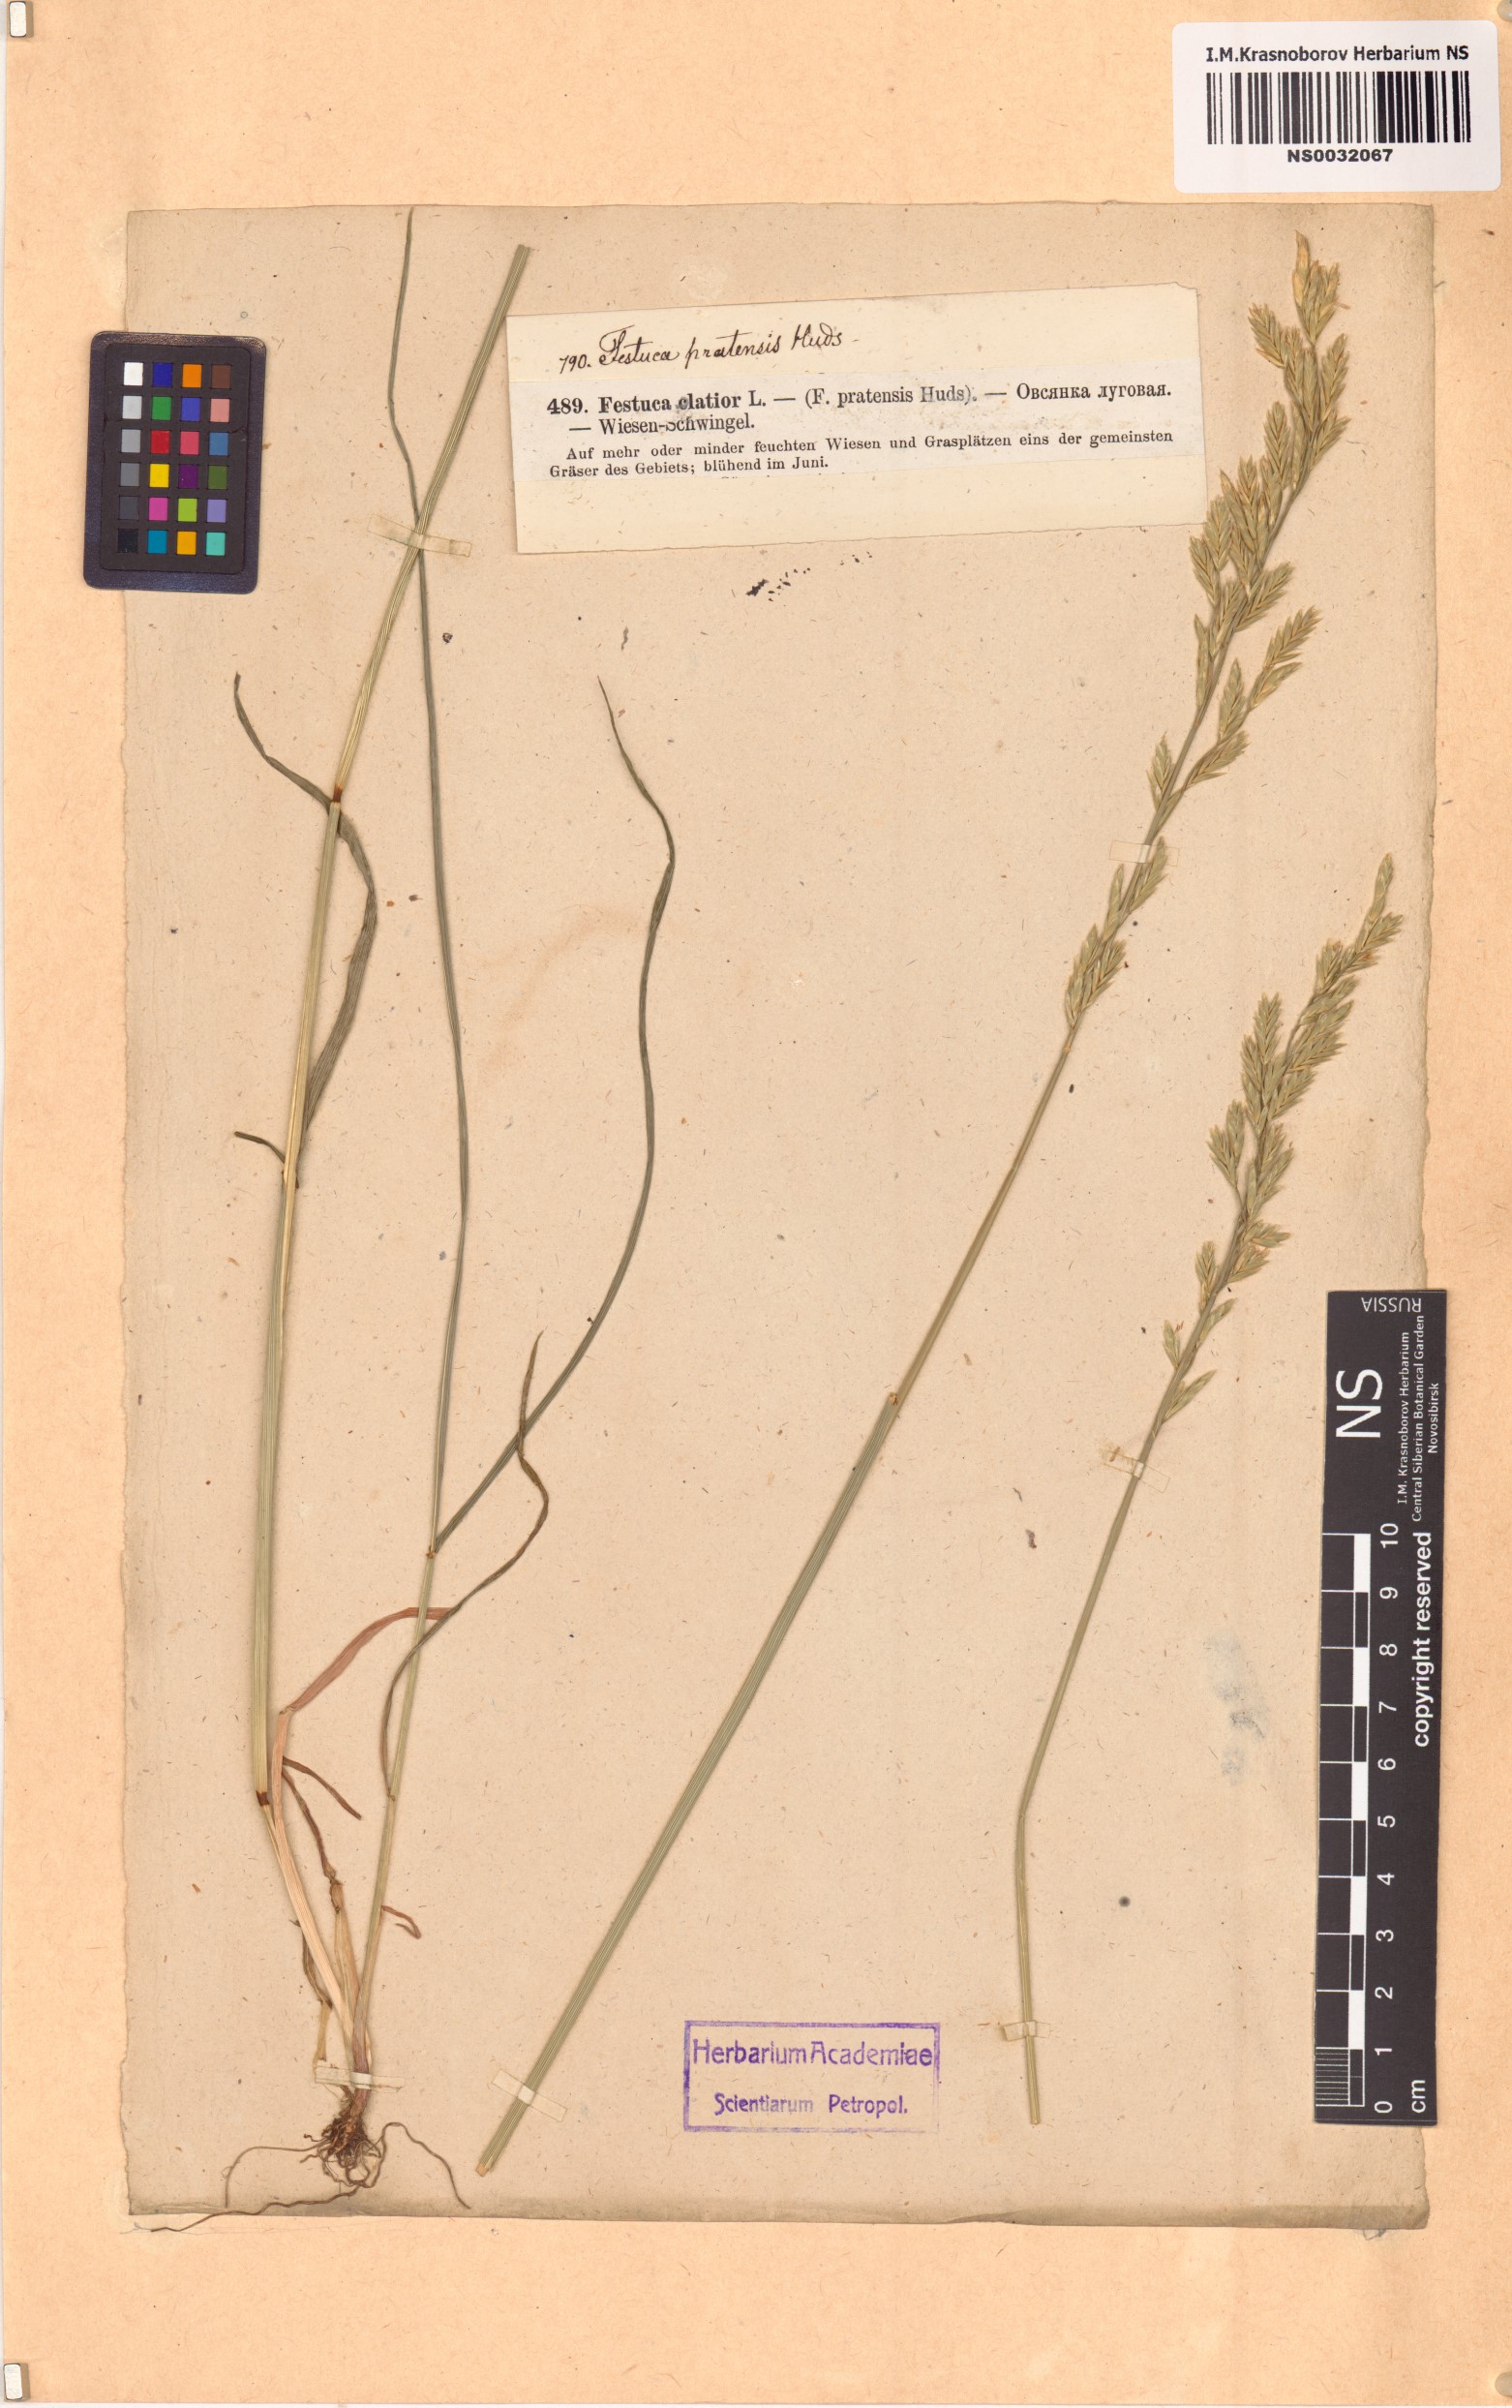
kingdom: Plantae
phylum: Tracheophyta
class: Liliopsida
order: Poales
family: Poaceae
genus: Lolium
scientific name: Lolium pratense
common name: Dover grass
